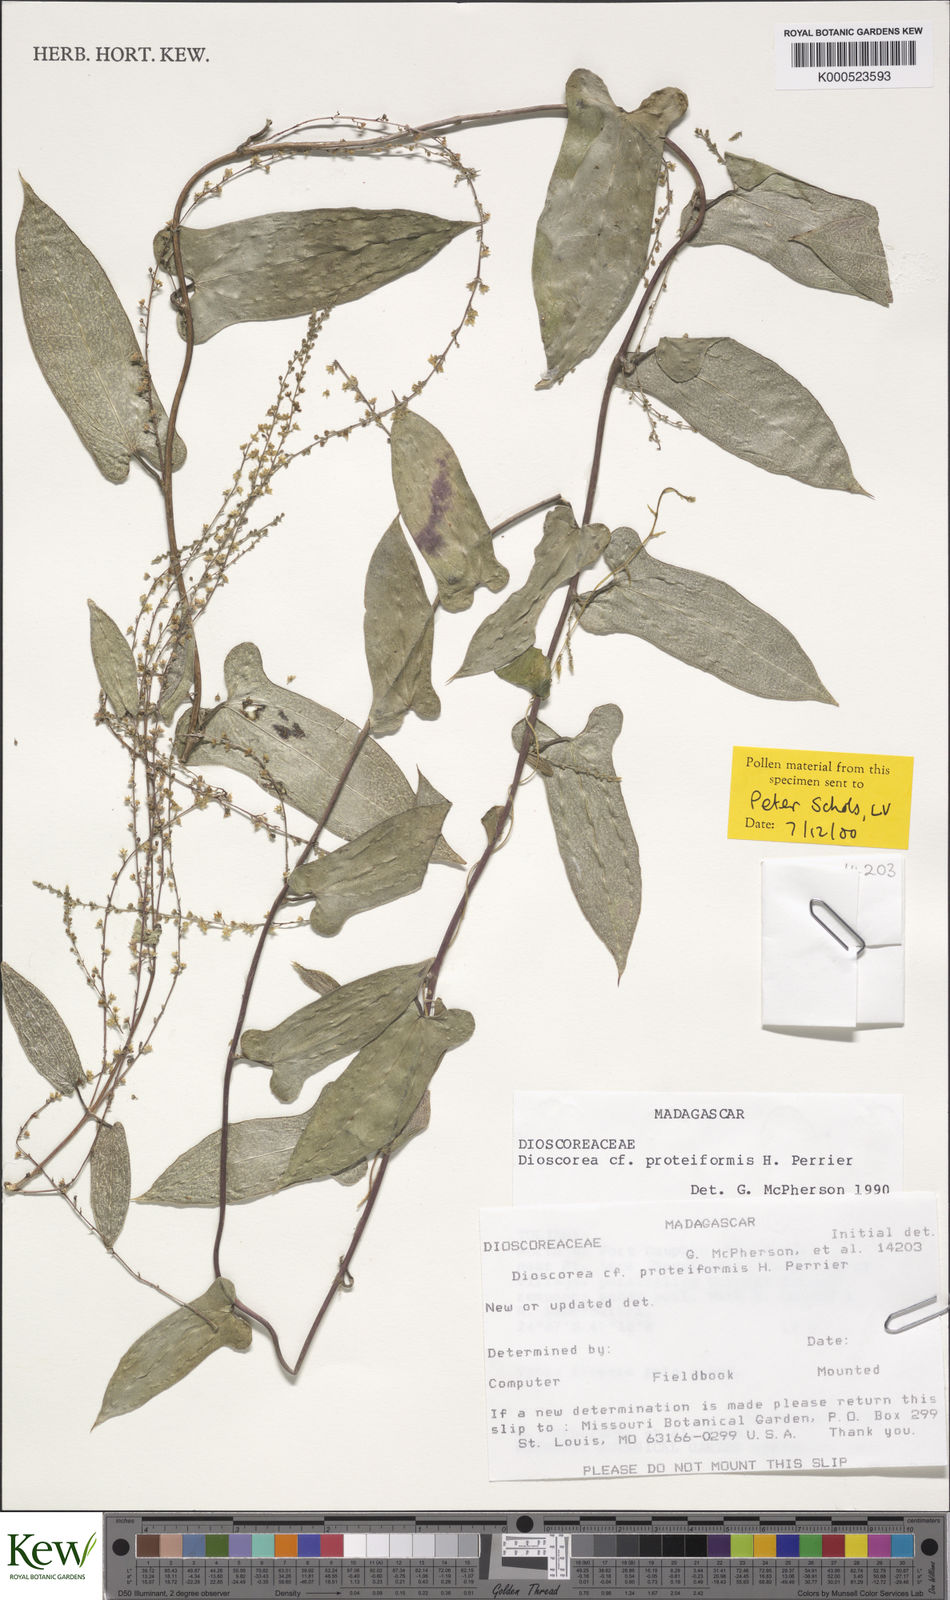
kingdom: Plantae
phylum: Tracheophyta
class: Liliopsida
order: Dioscoreales
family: Dioscoreaceae
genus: Dioscorea
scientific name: Dioscorea proteiformis
